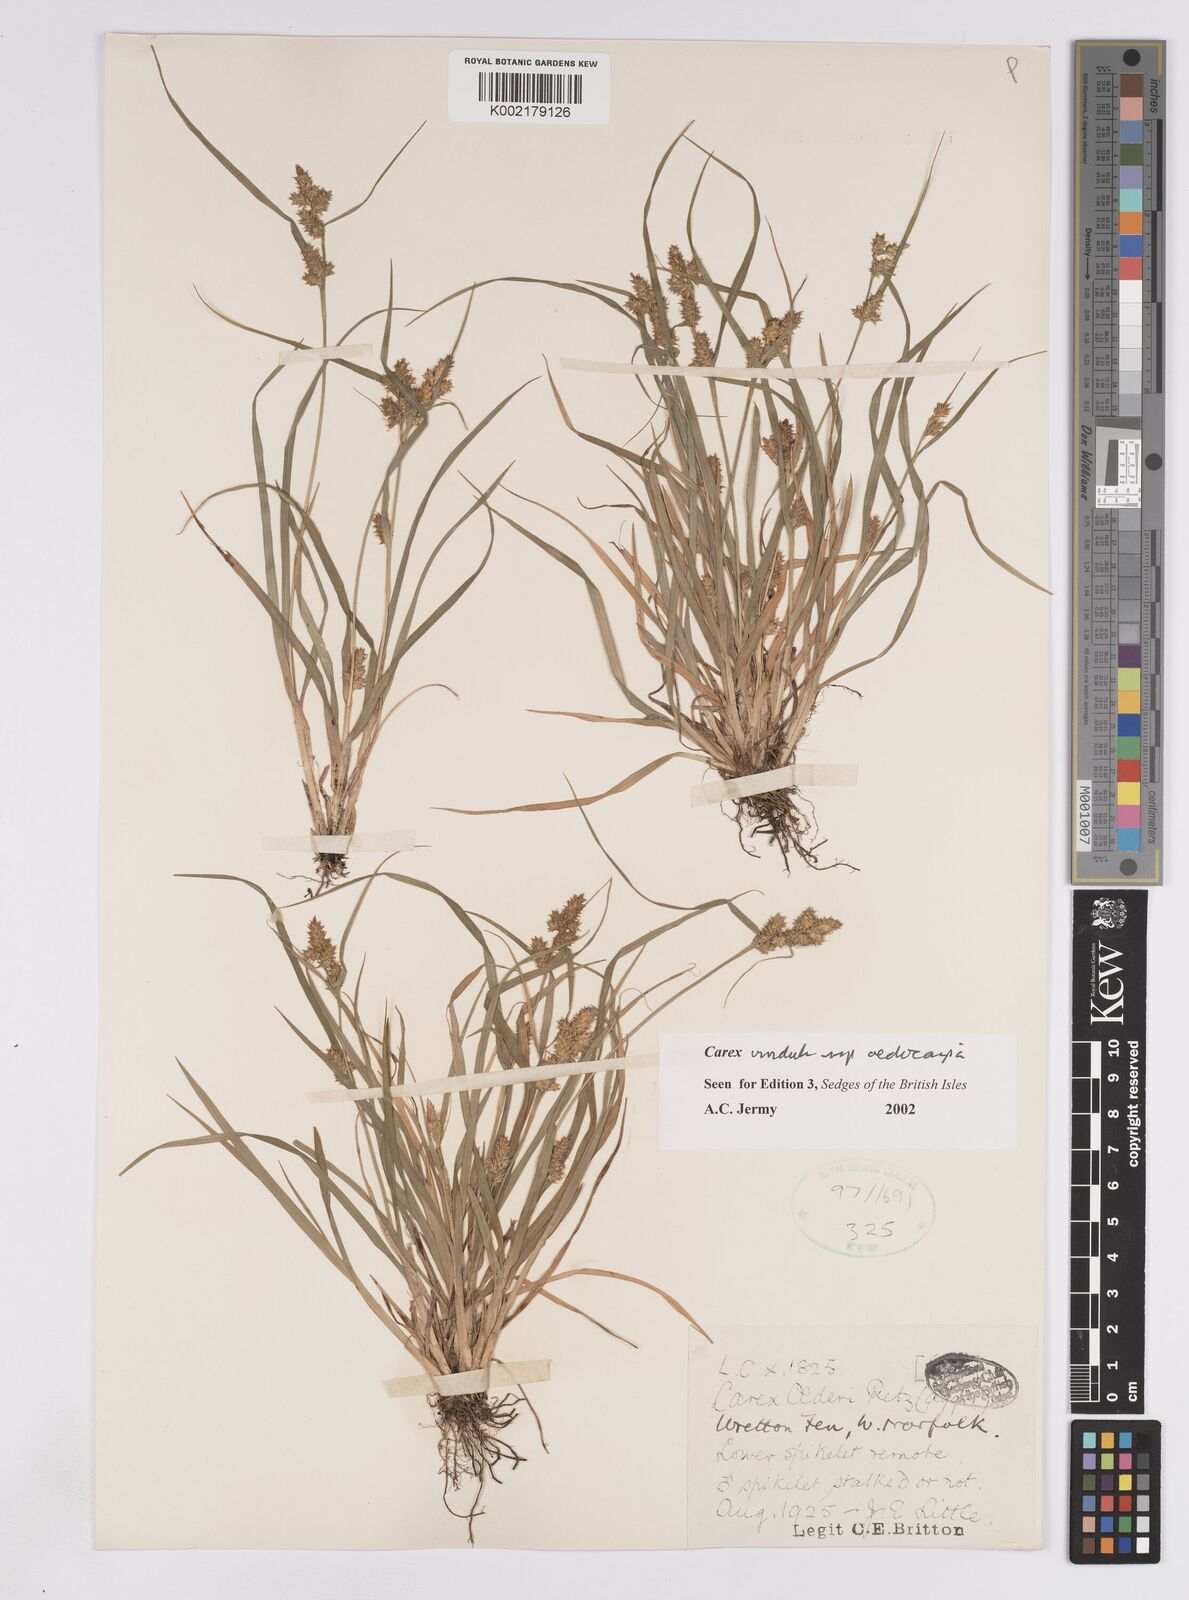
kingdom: Plantae
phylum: Tracheophyta
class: Liliopsida
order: Poales
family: Cyperaceae
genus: Carex
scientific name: Carex demissa
